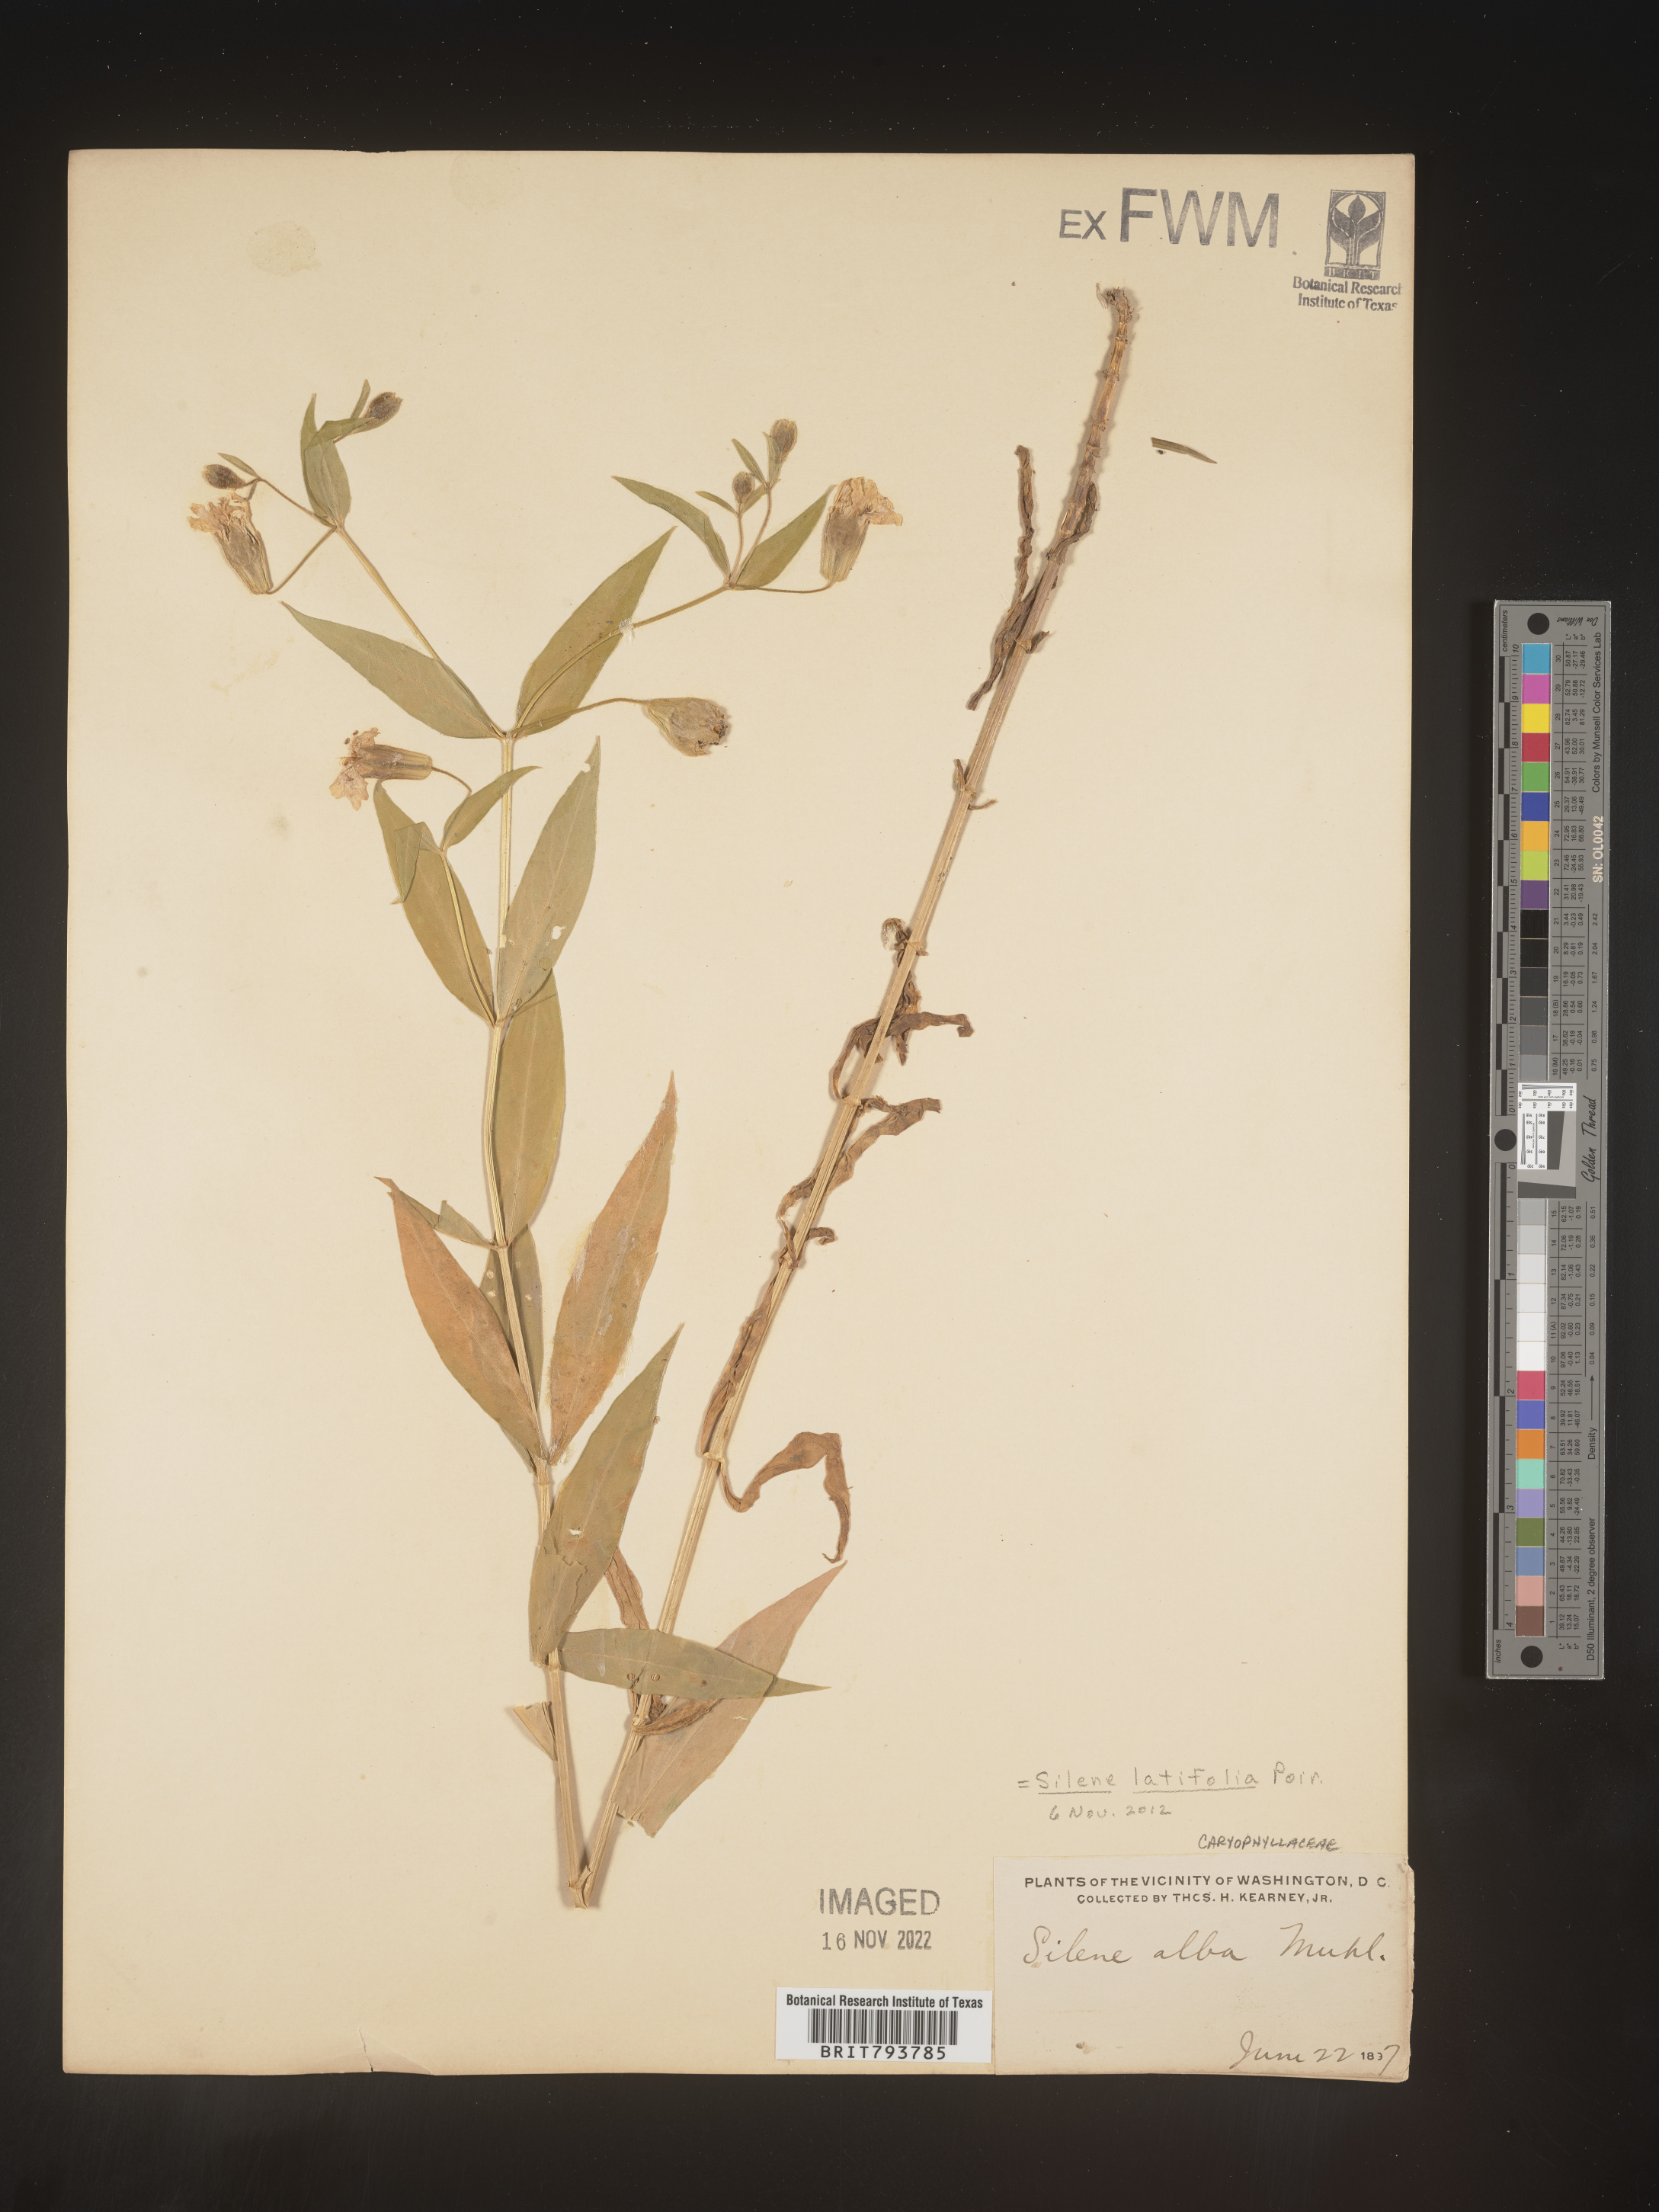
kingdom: Plantae
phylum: Tracheophyta
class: Magnoliopsida
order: Caryophyllales
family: Caryophyllaceae
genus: Silene
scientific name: Silene latifolia
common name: White campion
